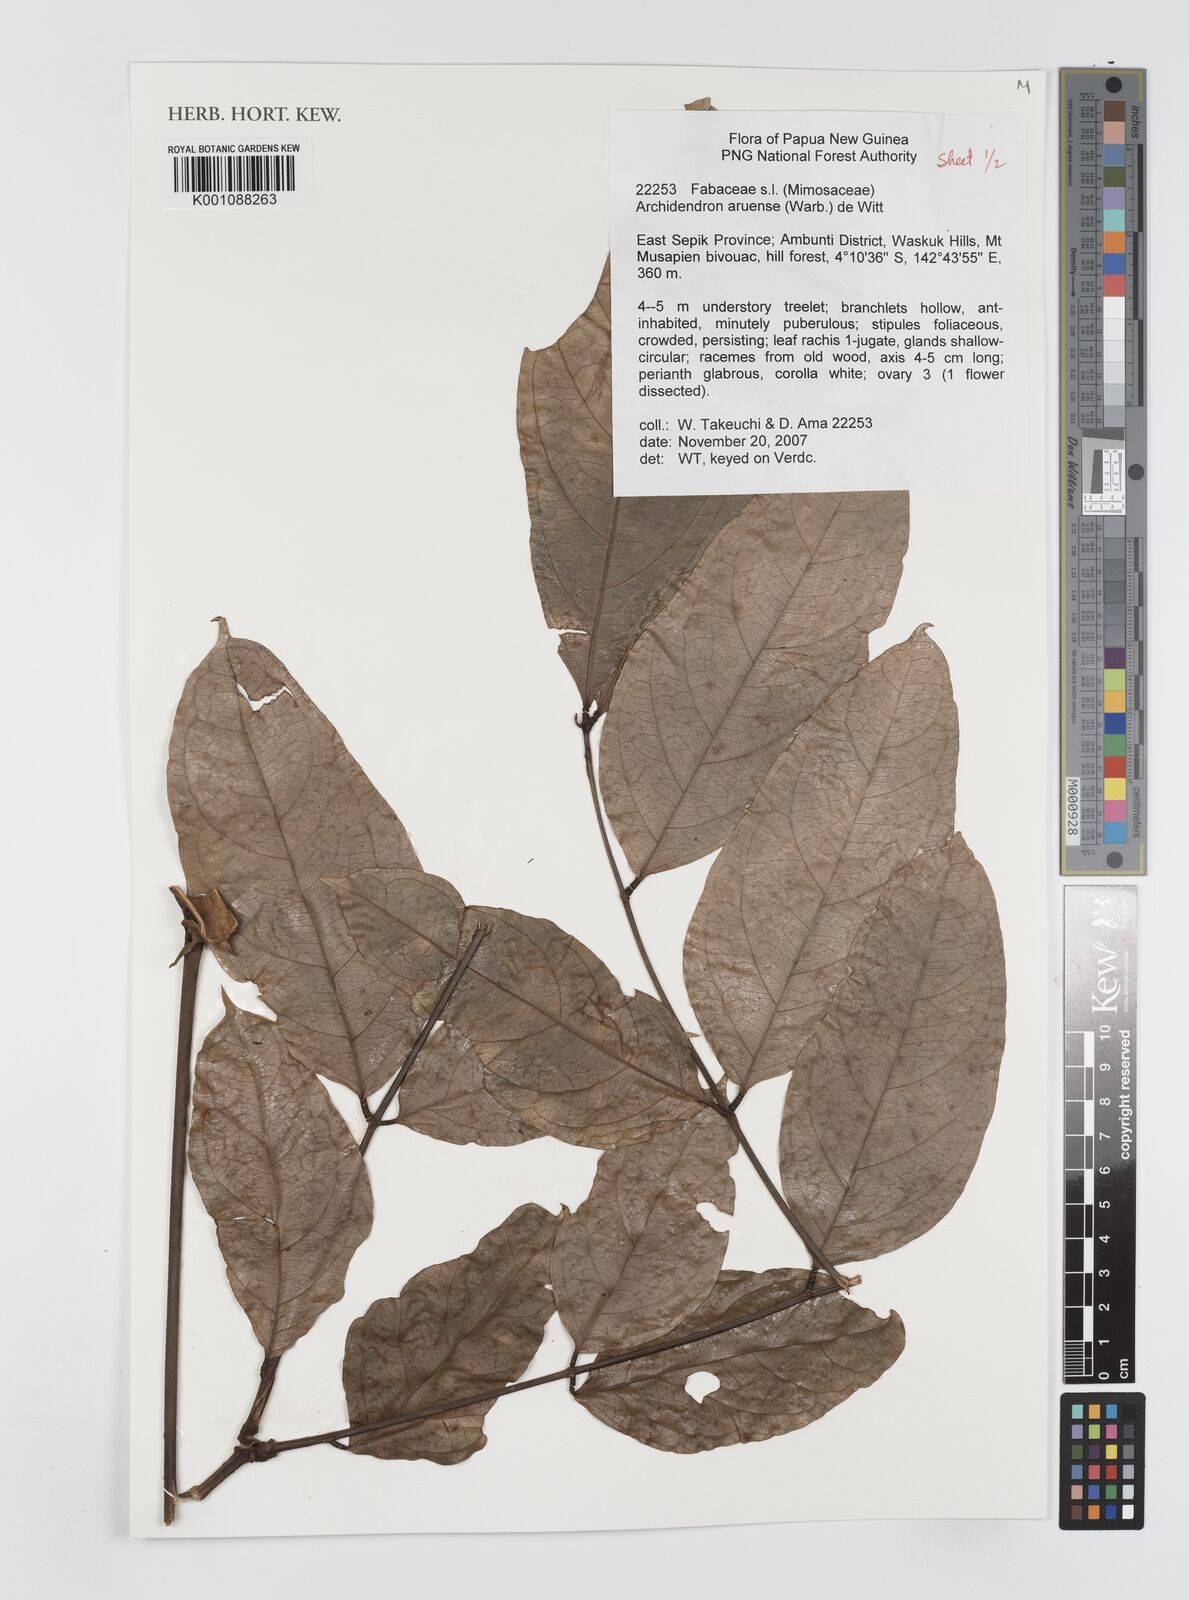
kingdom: Plantae
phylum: Tracheophyta
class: Magnoliopsida
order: Fabales
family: Fabaceae
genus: Archidendron
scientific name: Archidendron aruense
